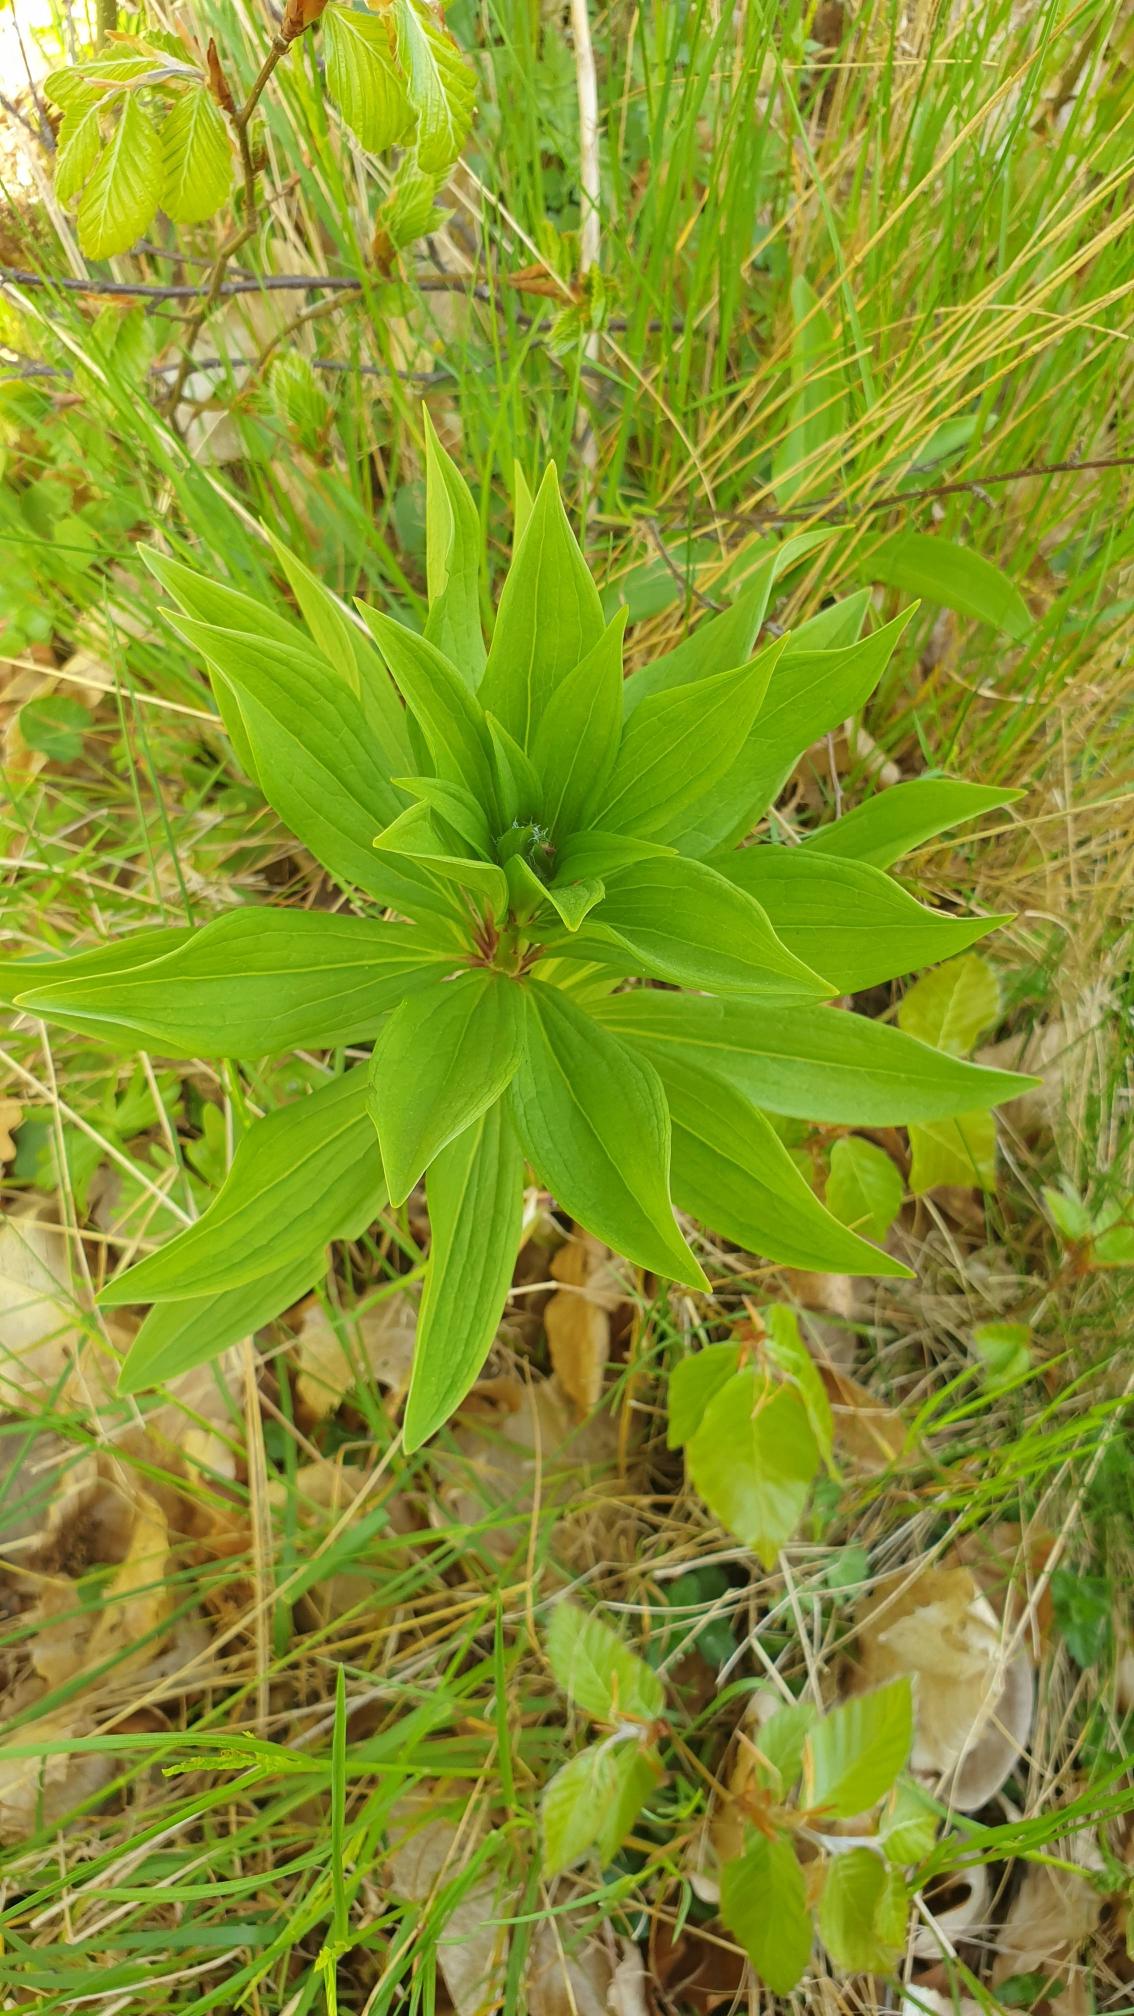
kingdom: Plantae
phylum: Tracheophyta
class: Liliopsida
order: Liliales
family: Liliaceae
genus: Lilium
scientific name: Lilium martagon
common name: Krans-lilje
